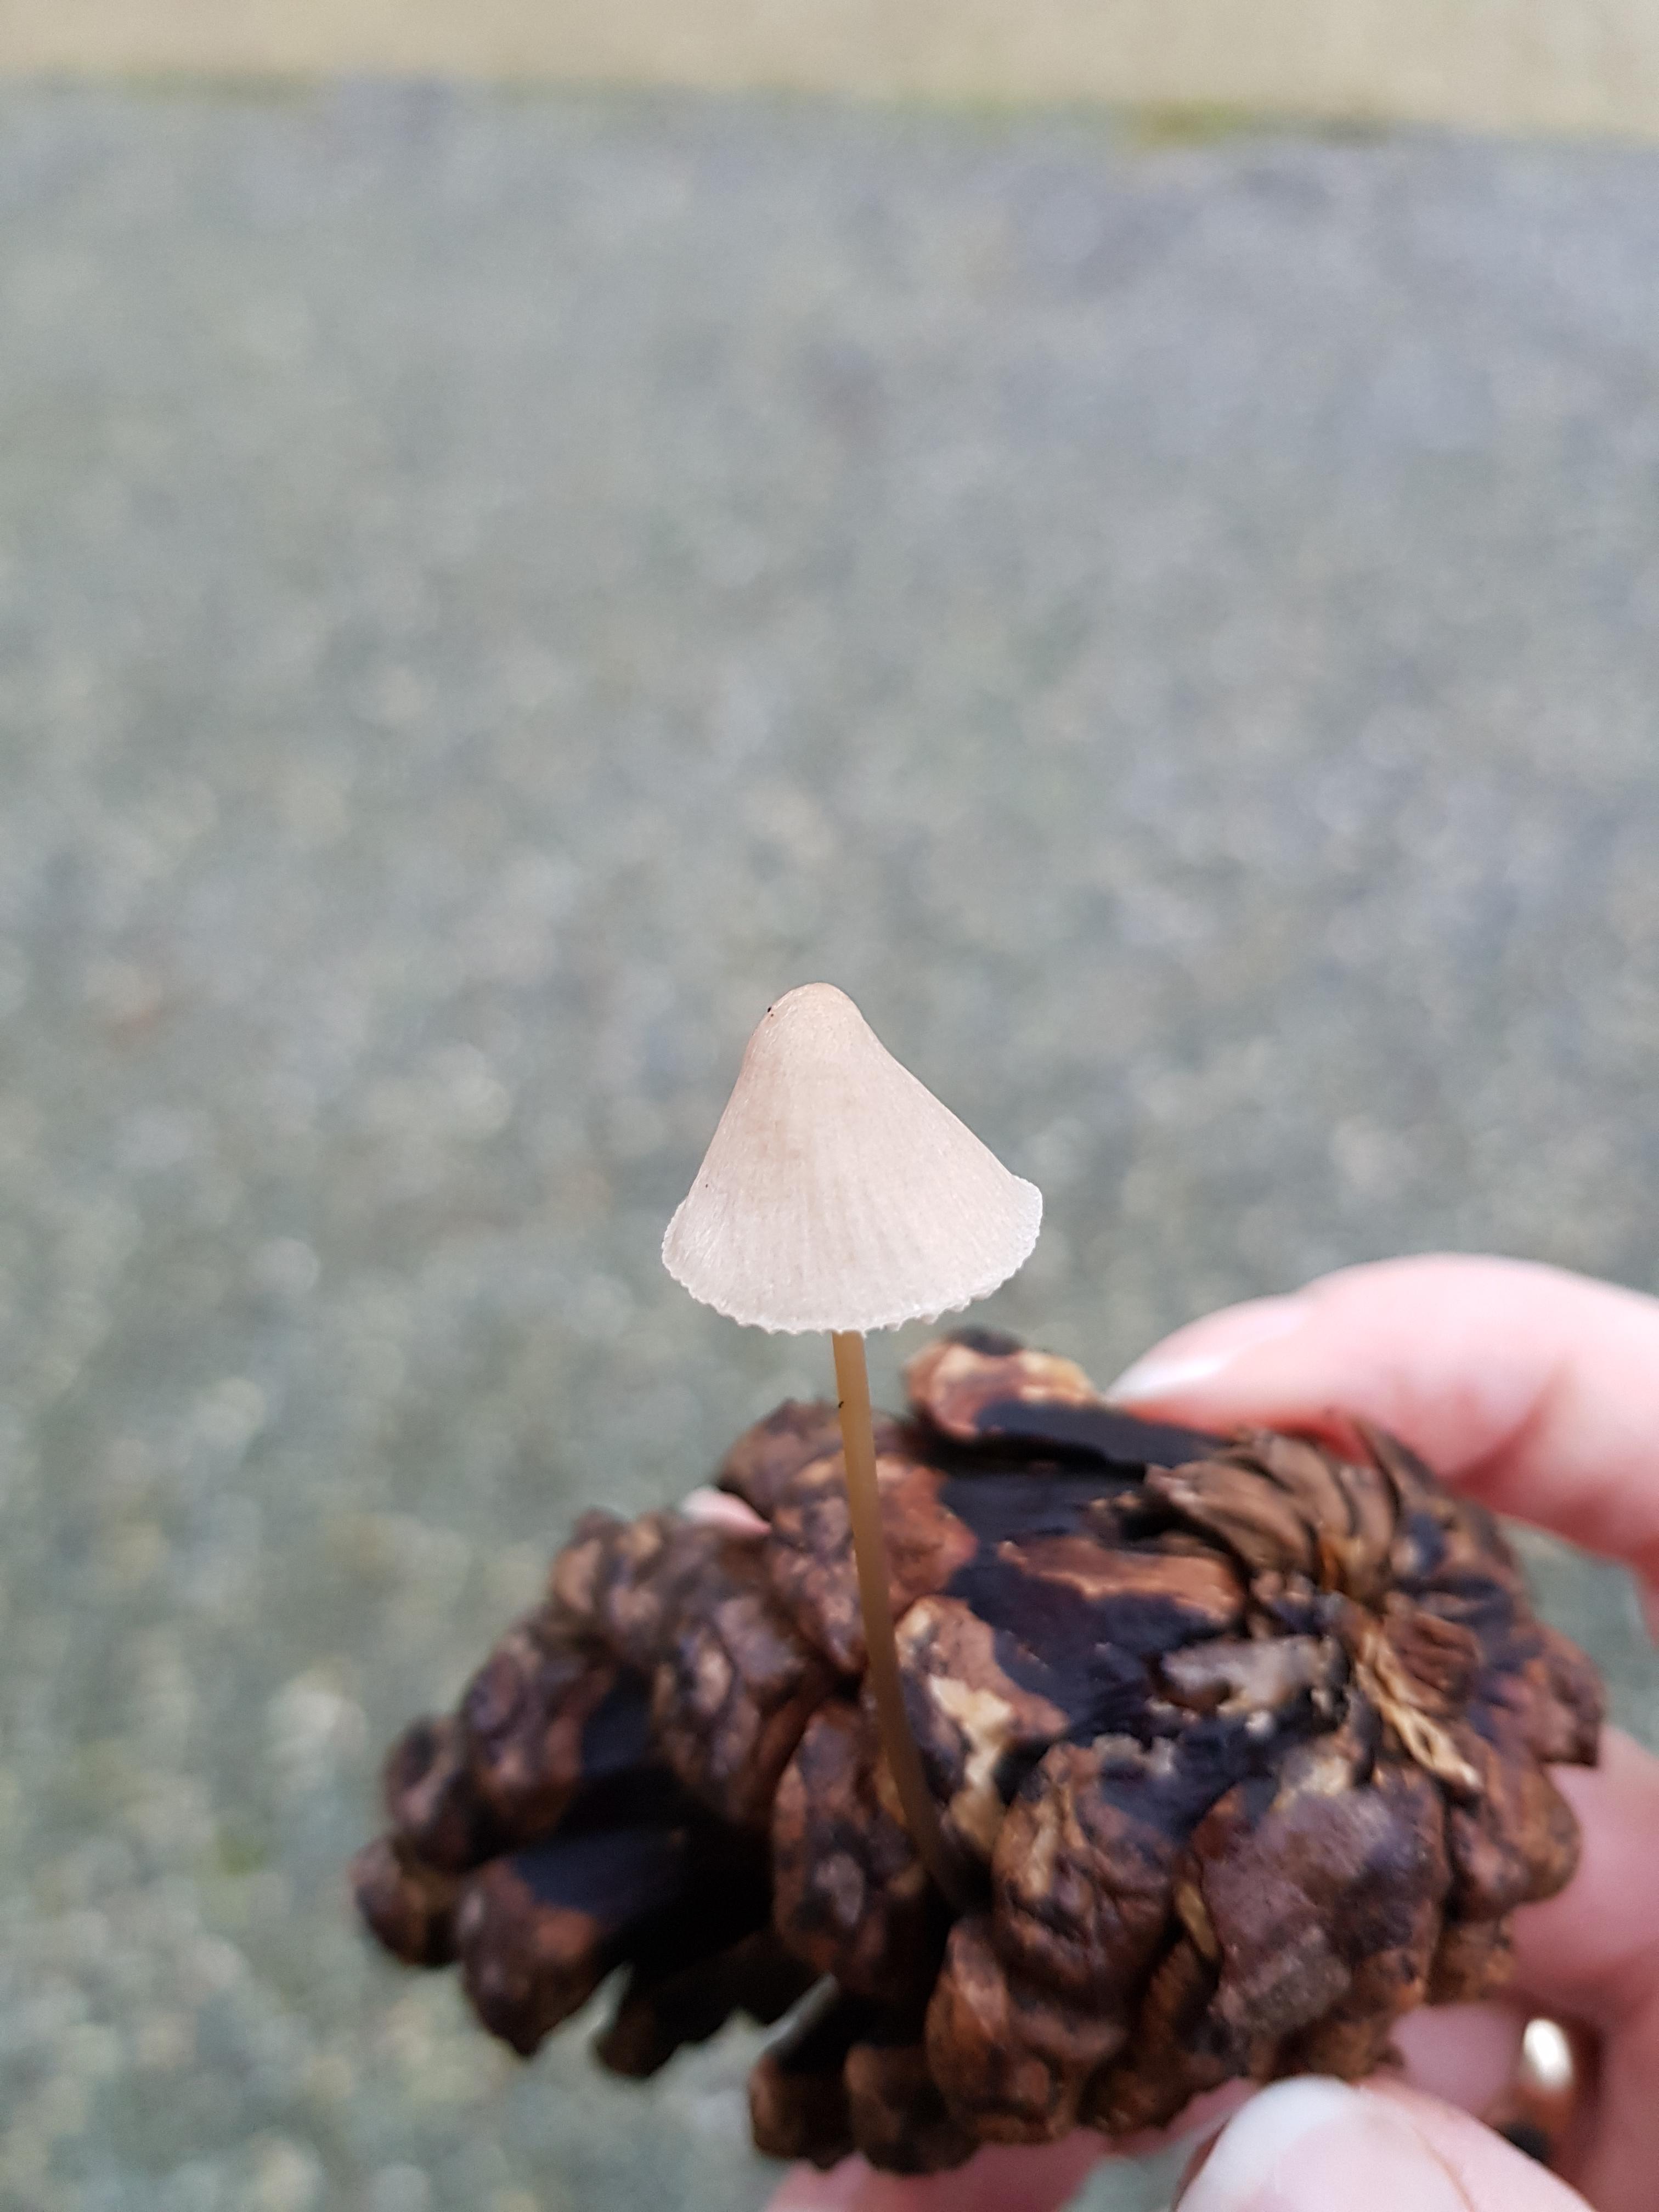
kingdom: Fungi
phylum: Basidiomycota
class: Agaricomycetes
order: Agaricales
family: Mycenaceae
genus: Mycena
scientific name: Mycena
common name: huesvamp
